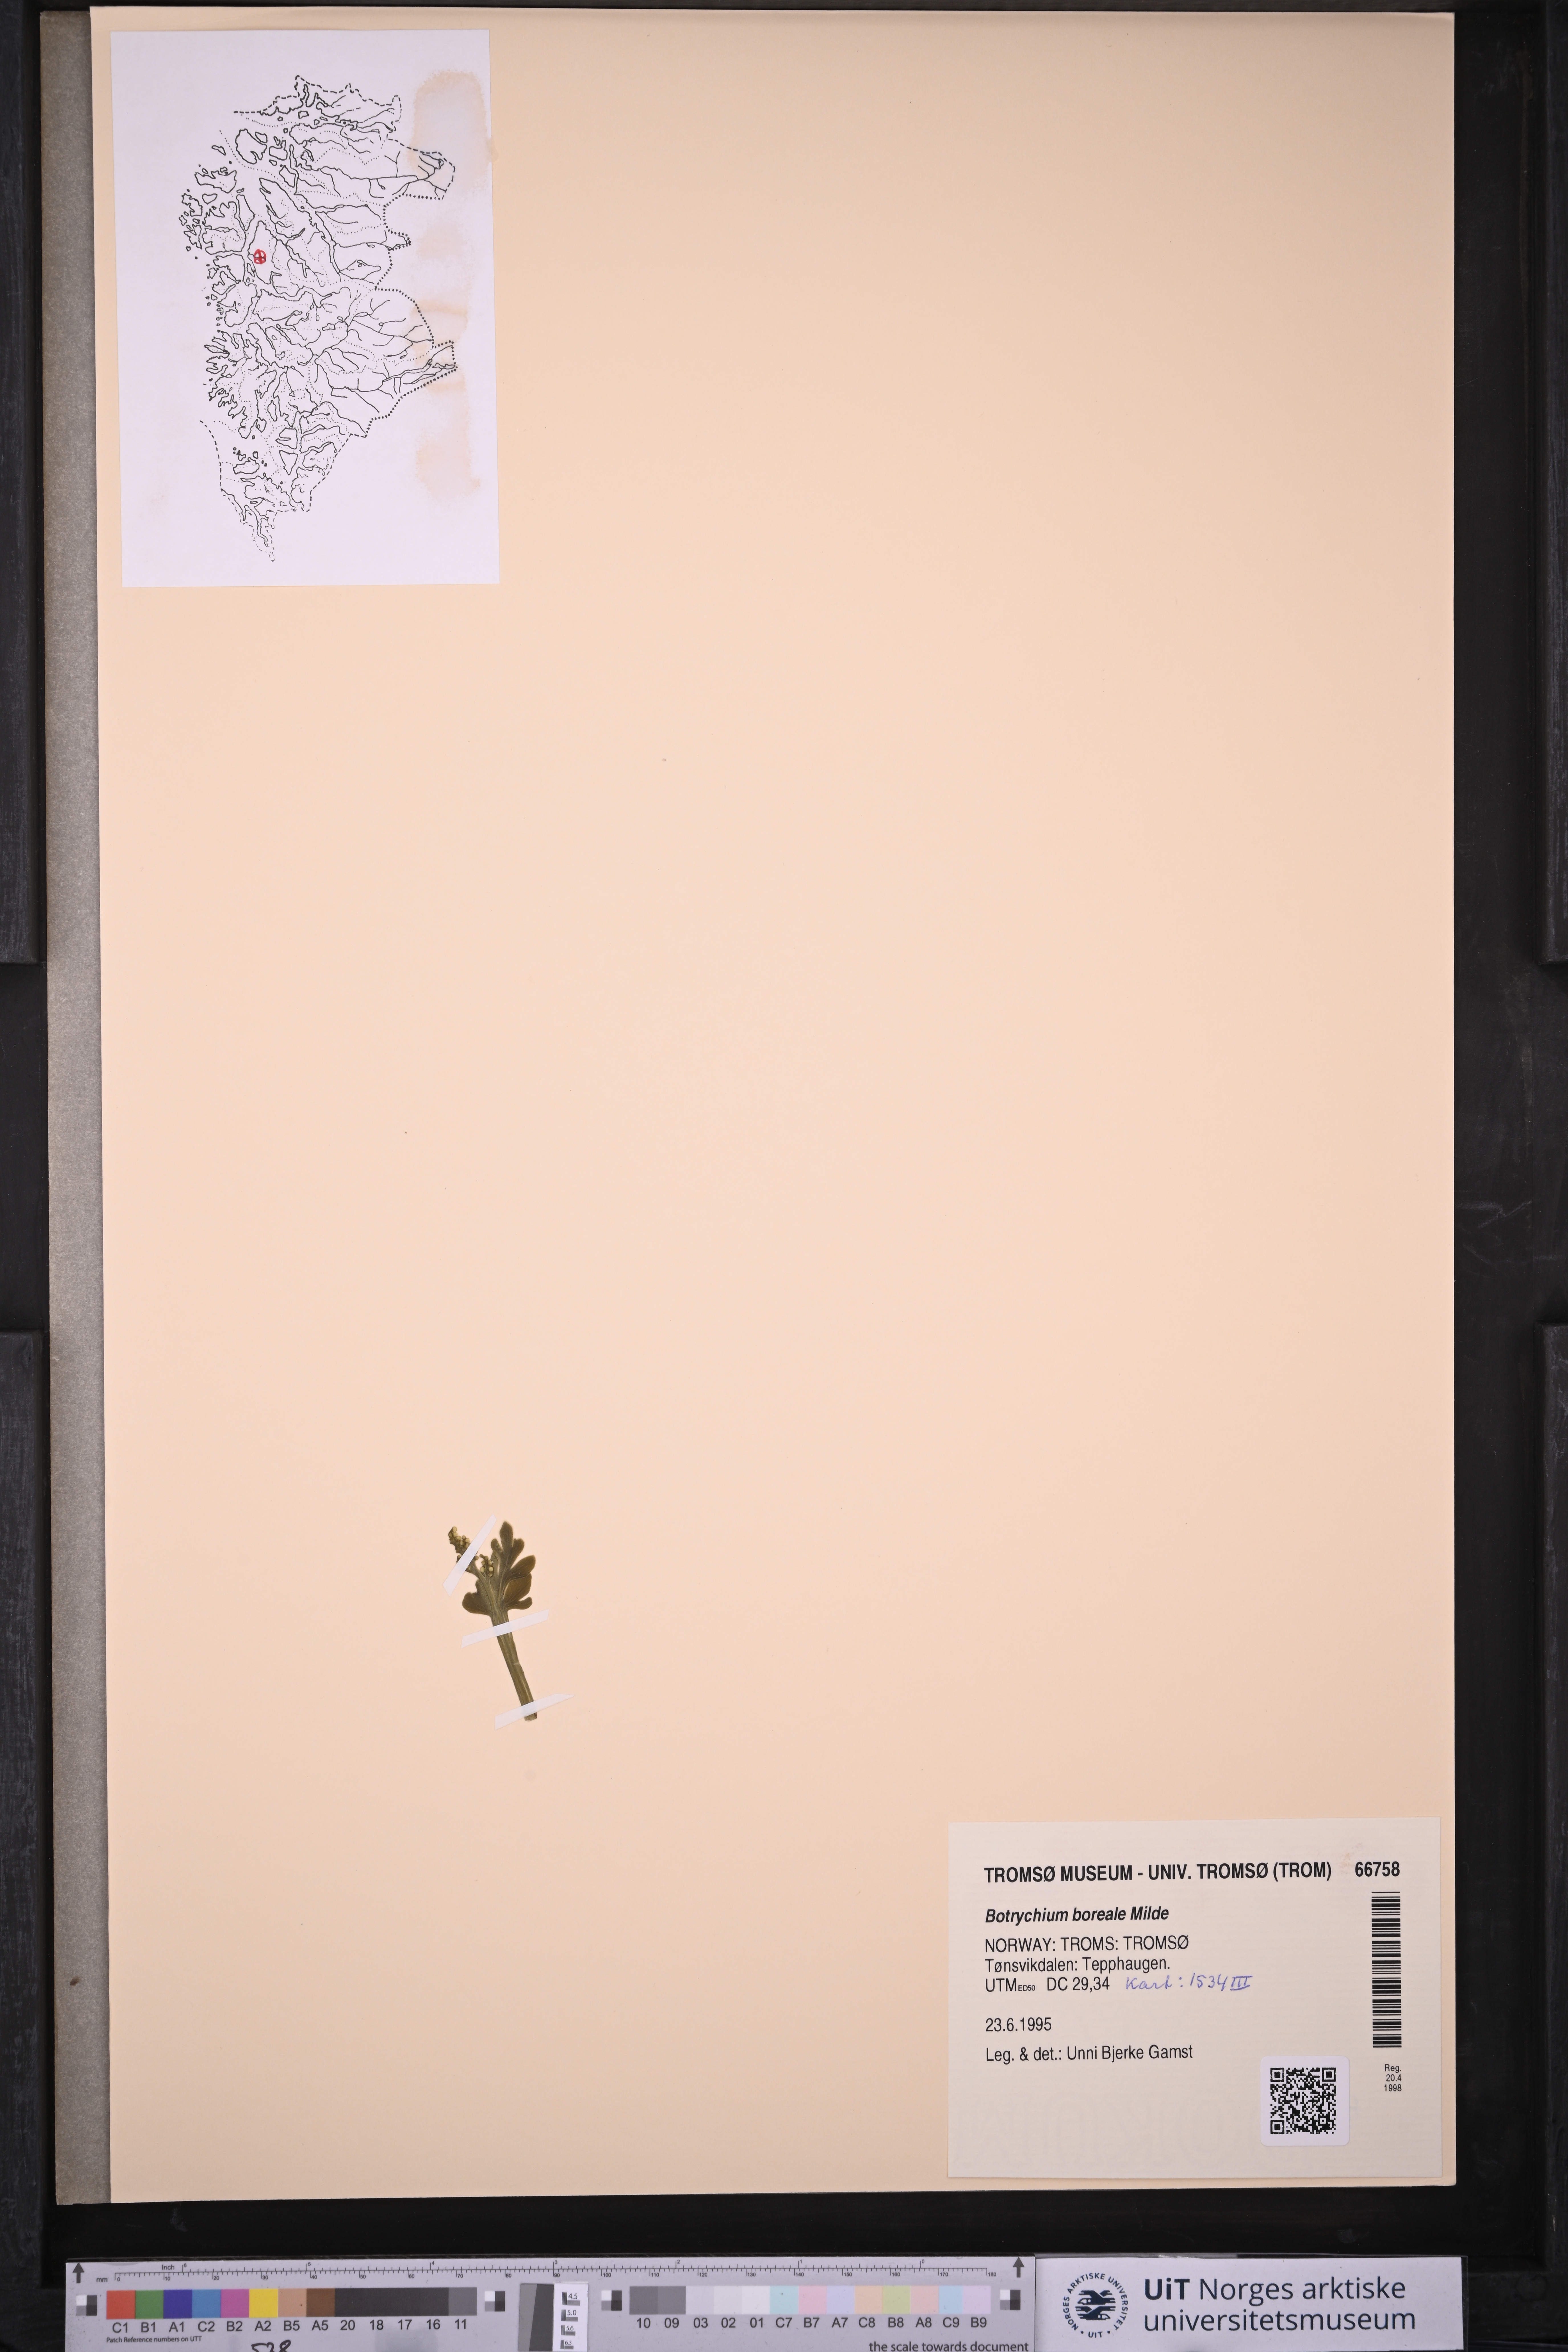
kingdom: Plantae
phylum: Tracheophyta
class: Polypodiopsida
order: Ophioglossales
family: Ophioglossaceae
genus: Botrychium
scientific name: Botrychium boreale
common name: Boreal moonwort
